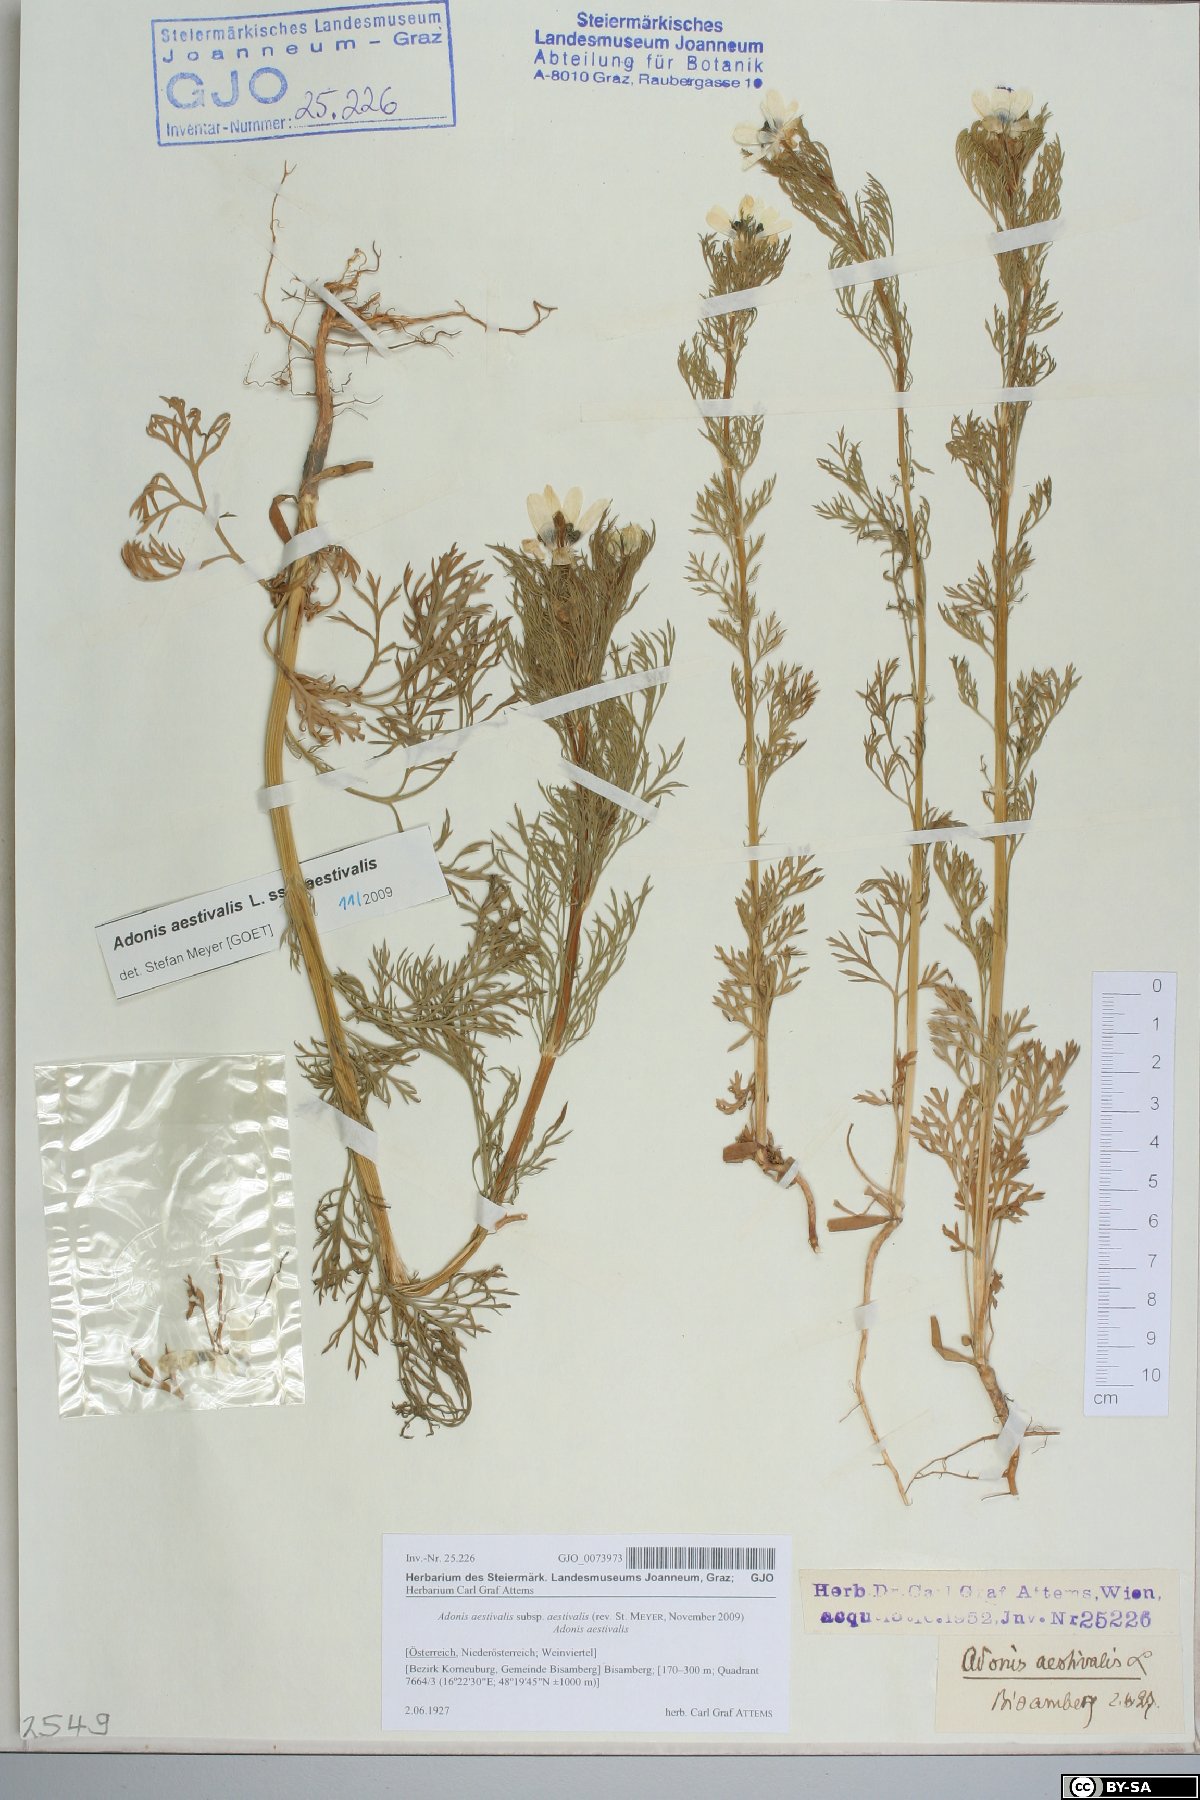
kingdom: Plantae
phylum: Tracheophyta
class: Magnoliopsida
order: Ranunculales
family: Ranunculaceae
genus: Adonis
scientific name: Adonis aestivalis
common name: Summer pheasant's-eye
